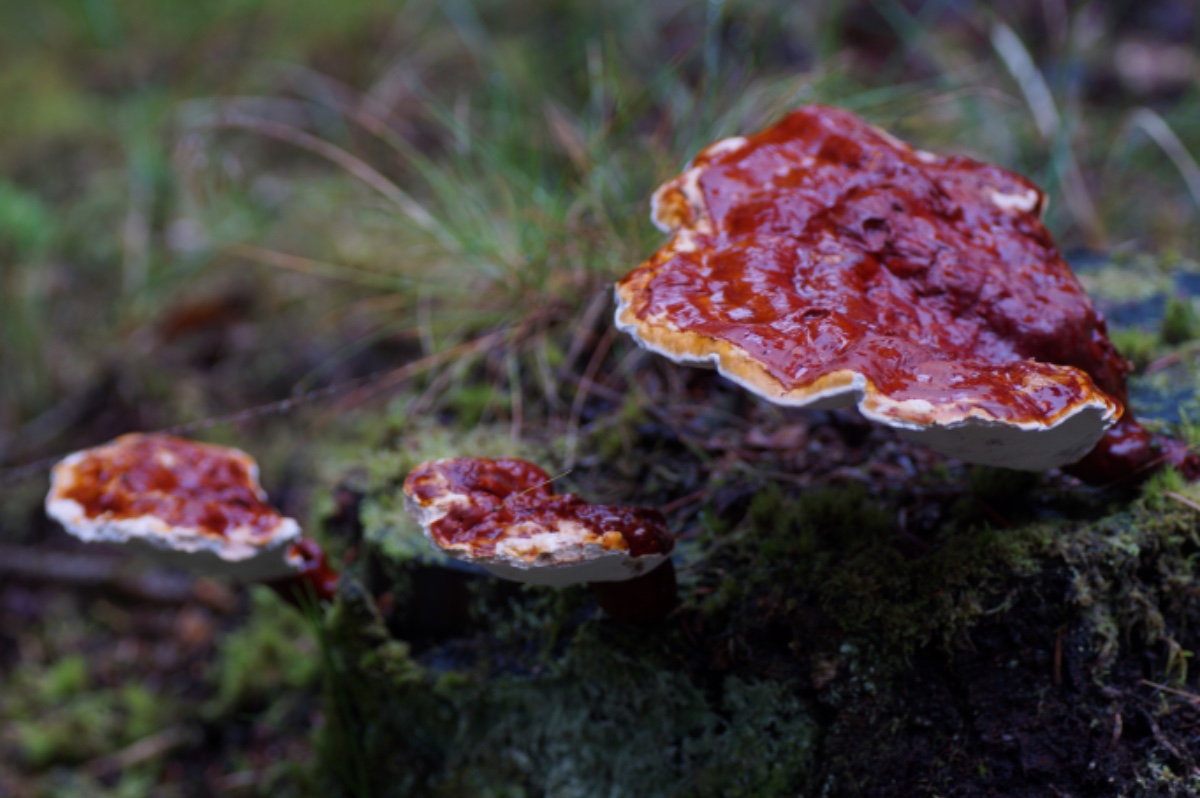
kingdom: Fungi
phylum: Basidiomycota
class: Agaricomycetes
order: Polyporales
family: Polyporaceae
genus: Ganoderma
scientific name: Ganoderma lucidum
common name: skinnende lakporesvamp
